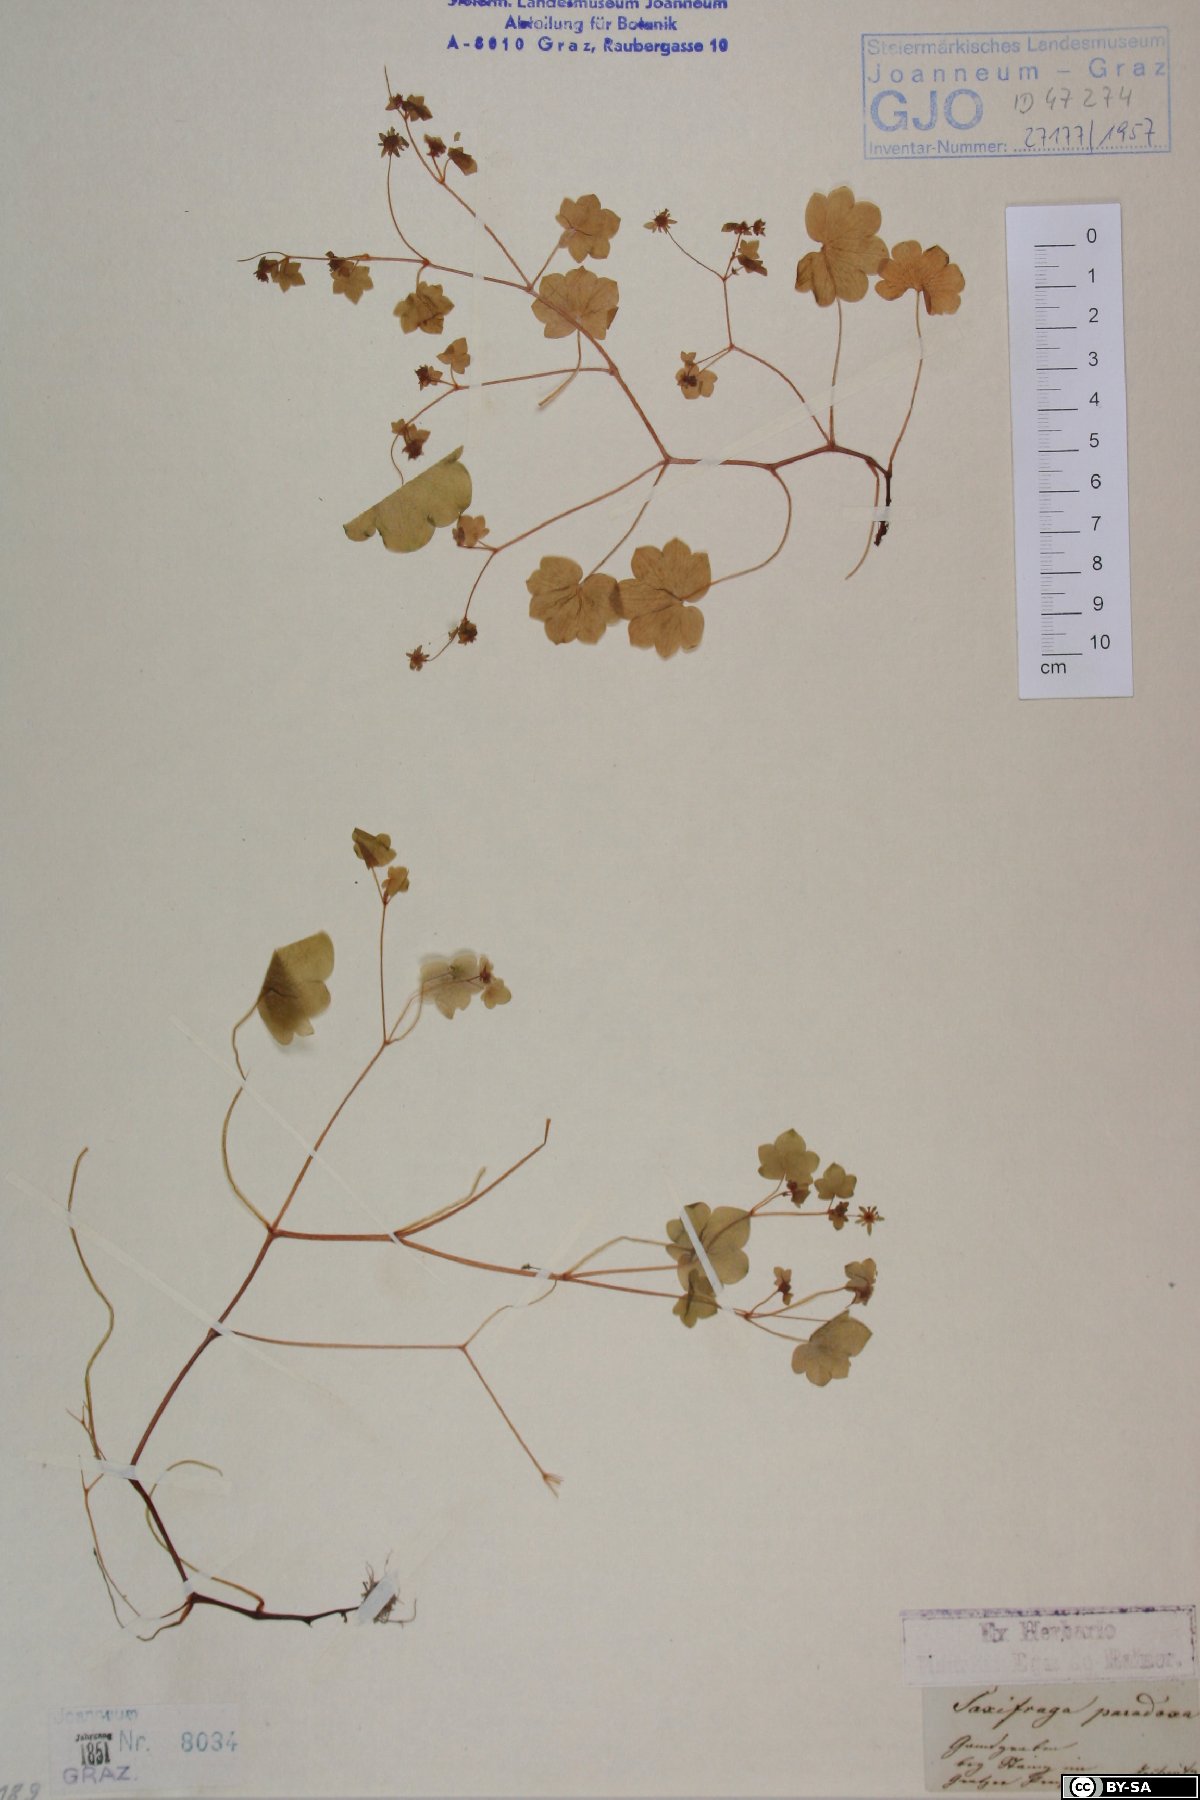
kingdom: Plantae
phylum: Tracheophyta
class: Magnoliopsida
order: Saxifragales
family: Saxifragaceae
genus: Saxifraga
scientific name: Saxifraga paradoxa
